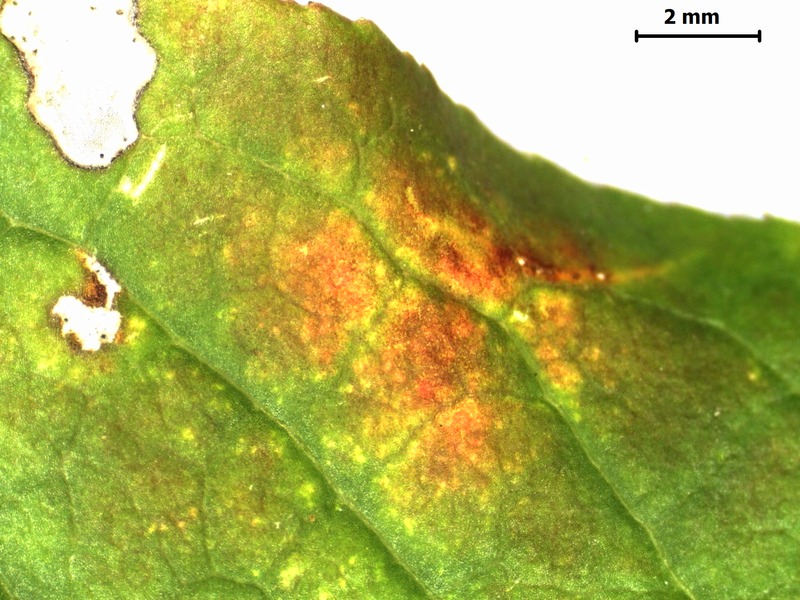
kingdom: Fungi
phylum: Ascomycota
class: Leotiomycetes
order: Helotiales
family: Erysiphaceae
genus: Erysiphe
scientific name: Erysiphe euonymi
